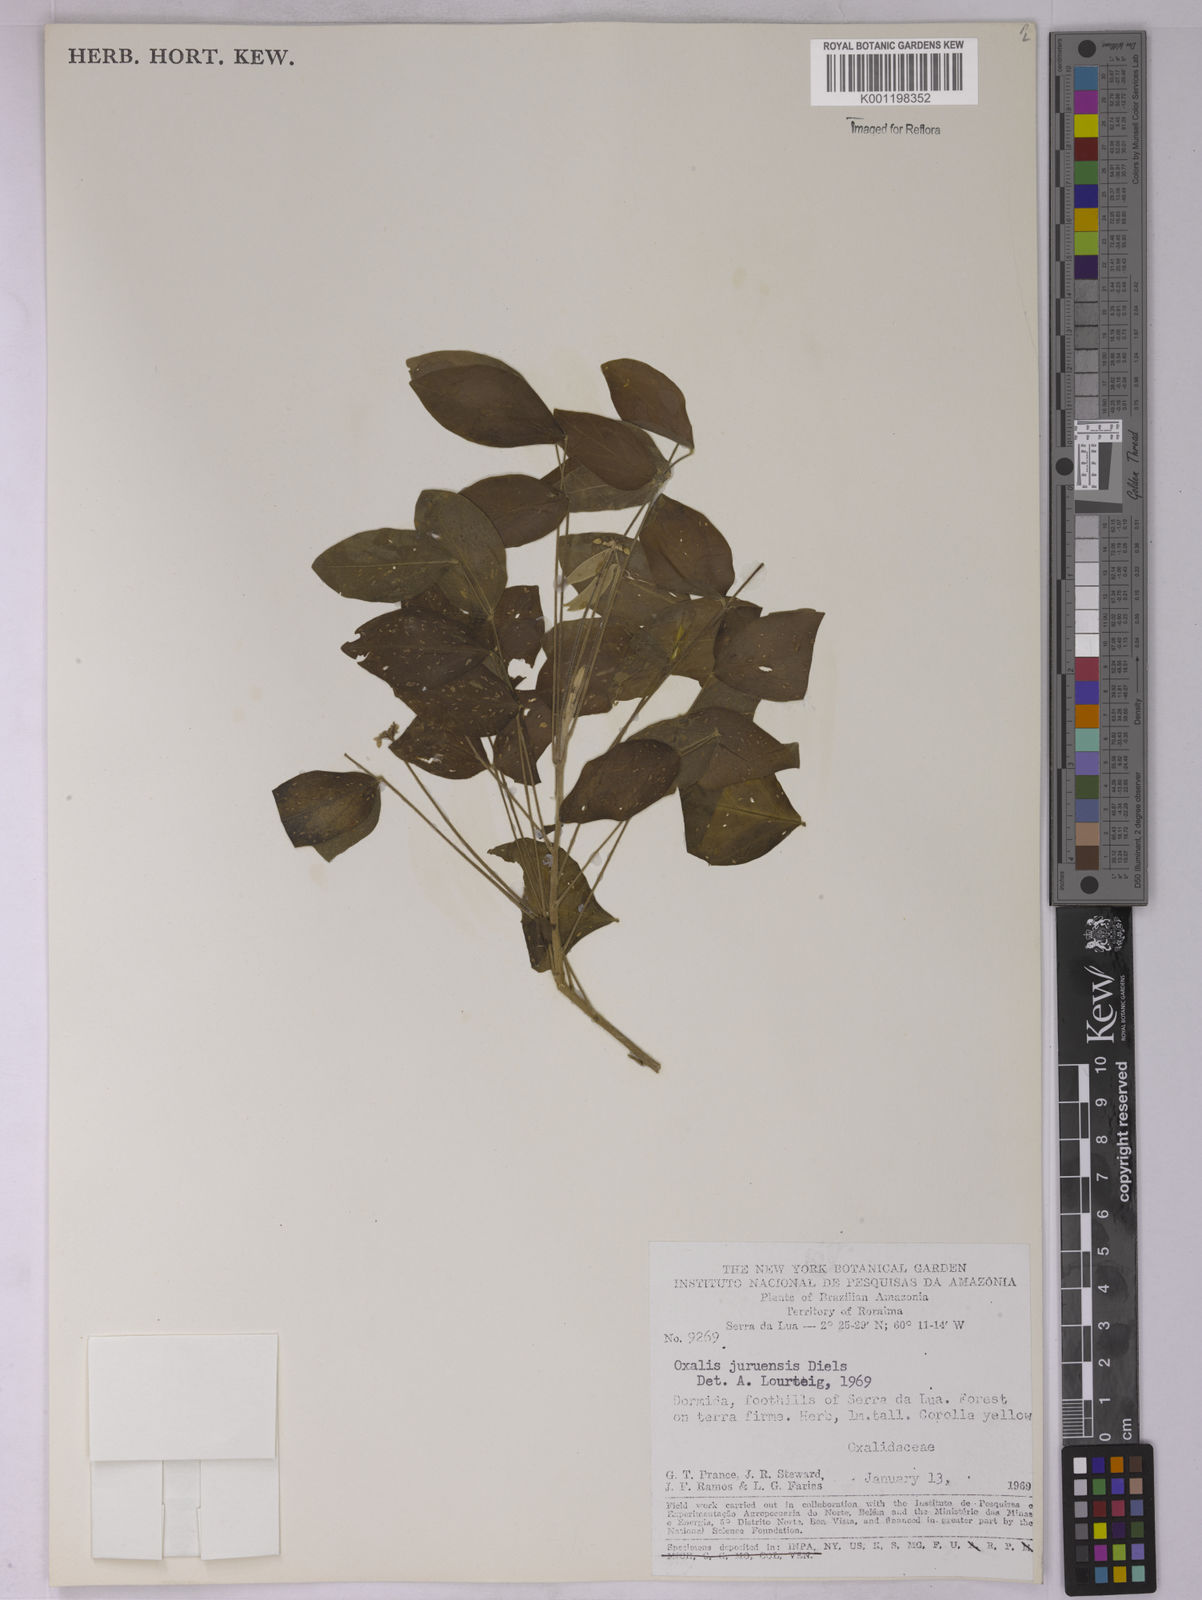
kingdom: Plantae
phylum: Tracheophyta
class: Magnoliopsida
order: Oxalidales
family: Oxalidaceae
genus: Oxalis
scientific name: Oxalis juruensis
